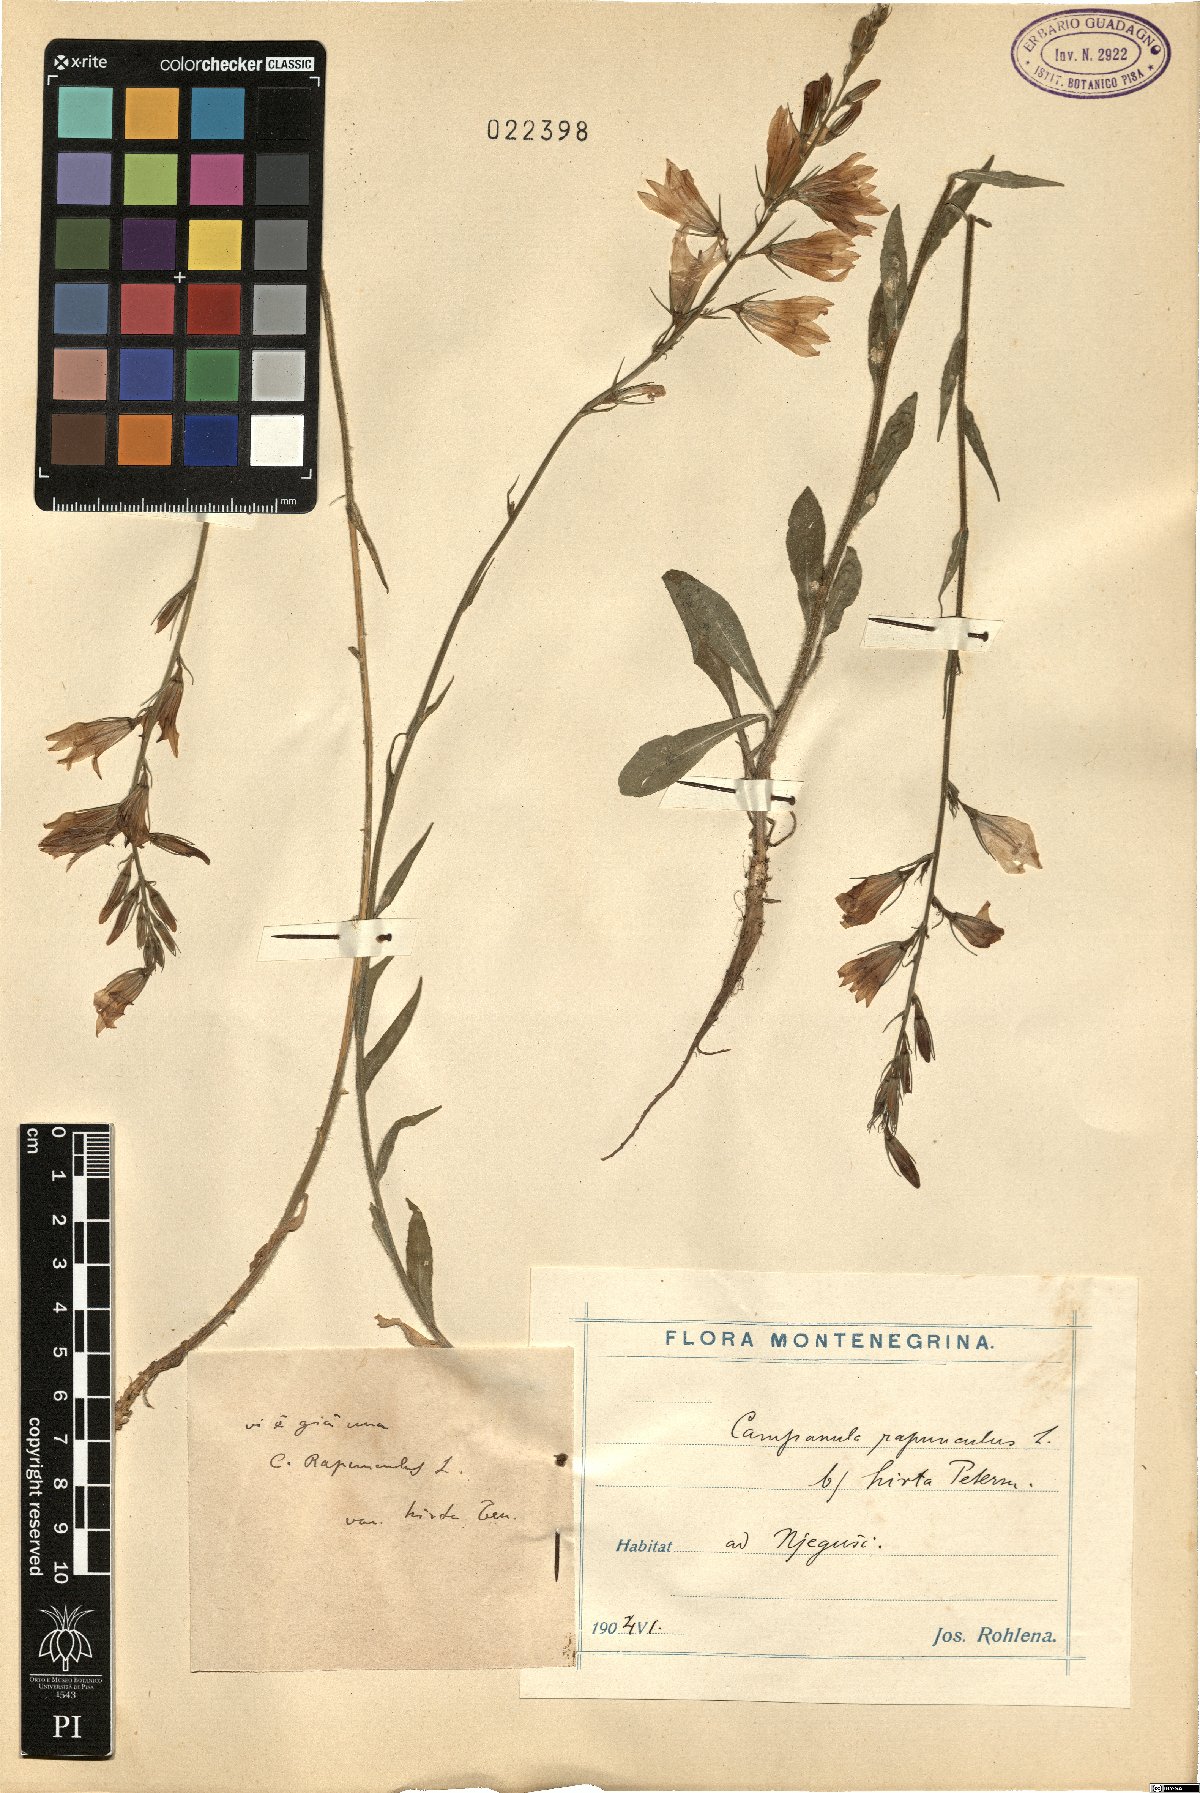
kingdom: Plantae
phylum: Tracheophyta
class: Magnoliopsida
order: Asterales
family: Campanulaceae
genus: Campanula
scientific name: Campanula rapunculus
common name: Rampion bellflower
